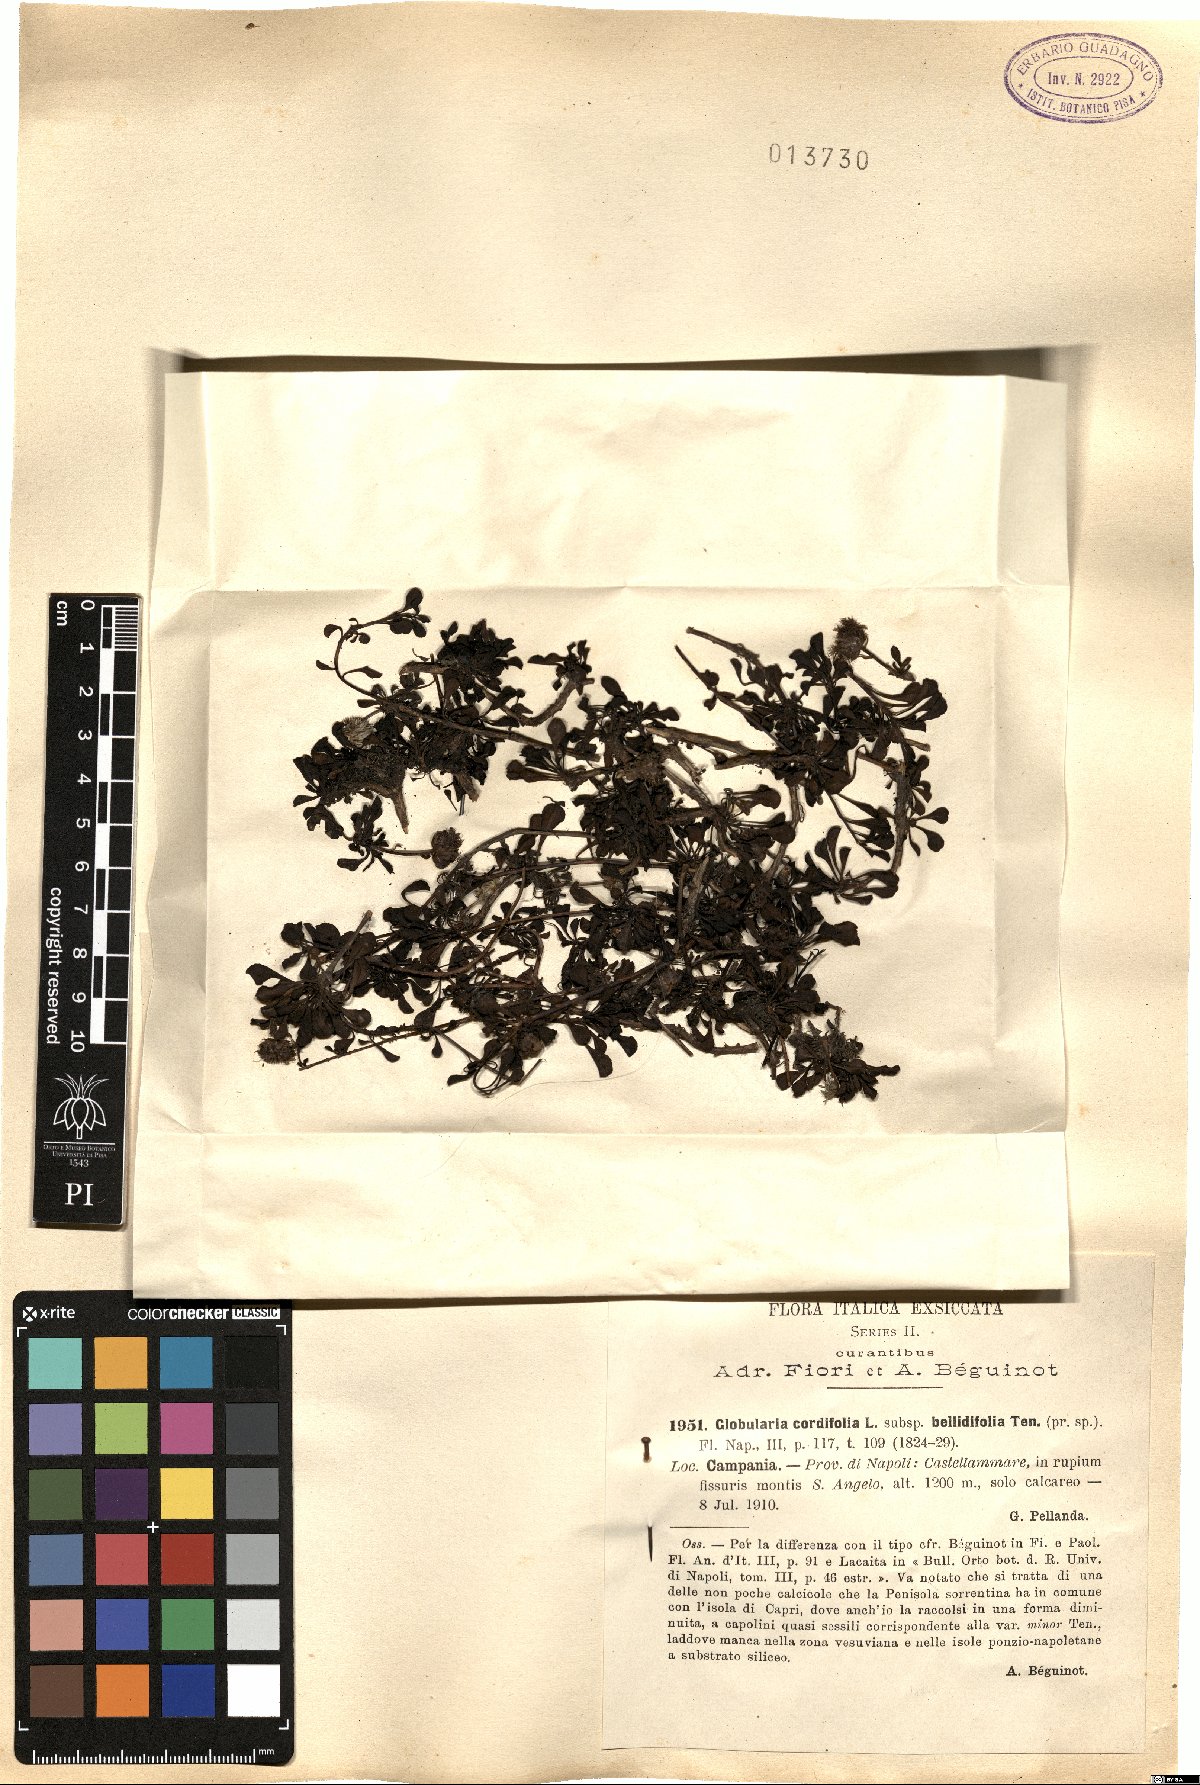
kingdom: Plantae
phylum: Tracheophyta
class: Magnoliopsida
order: Lamiales
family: Plantaginaceae
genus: Globularia
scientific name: Globularia meridionalis
